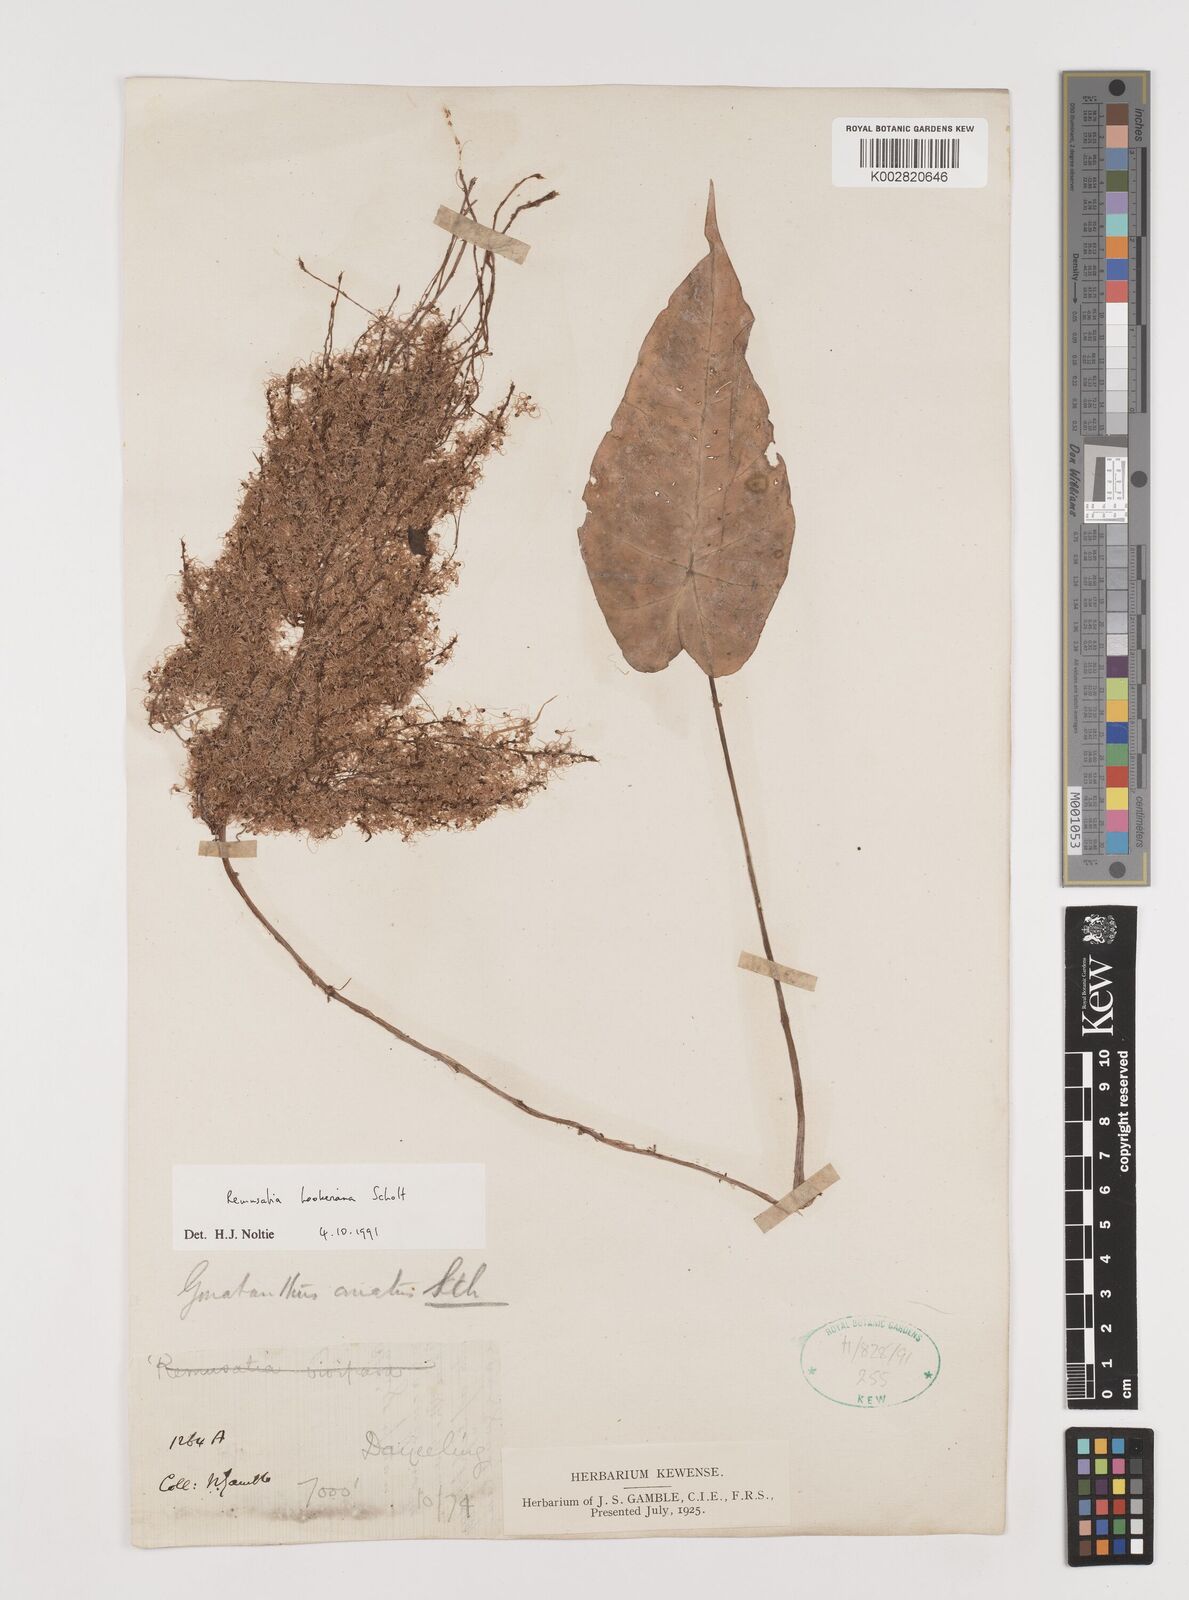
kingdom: Plantae
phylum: Tracheophyta
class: Liliopsida
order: Alismatales
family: Araceae
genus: Remusatia
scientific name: Remusatia hookeriana
